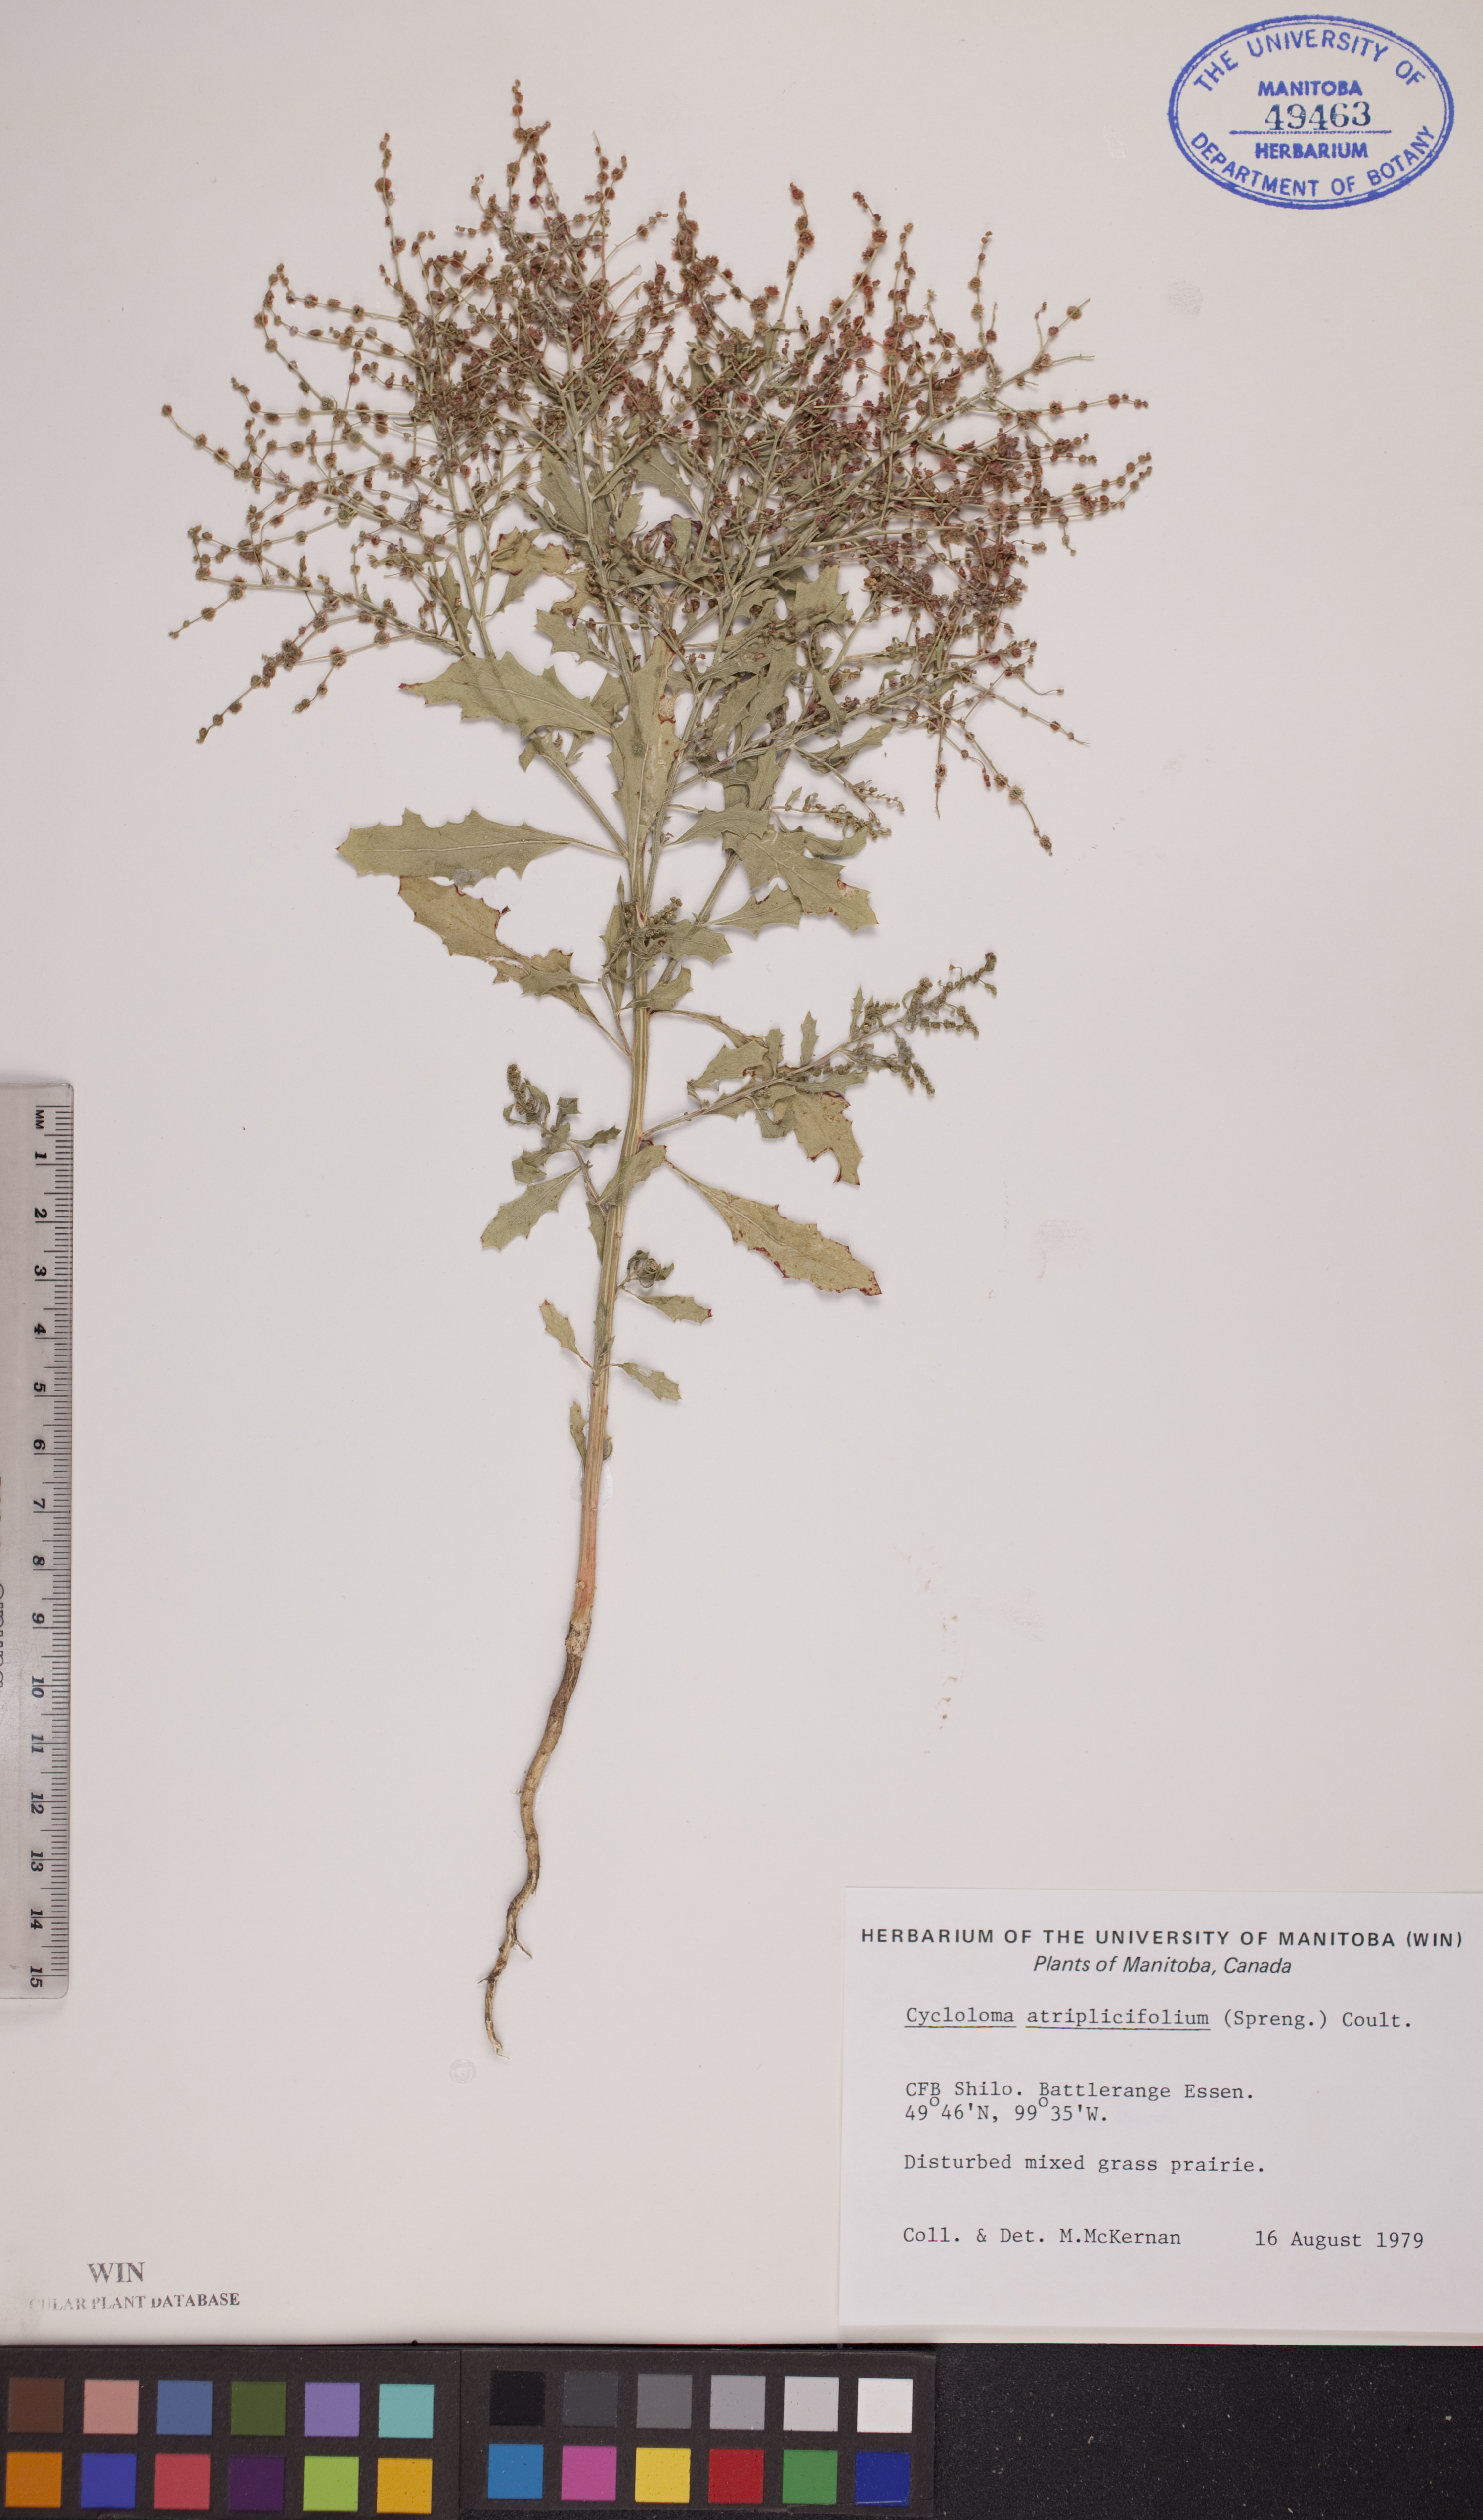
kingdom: Plantae
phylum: Tracheophyta
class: Magnoliopsida
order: Caryophyllales
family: Amaranthaceae
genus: Dysphania
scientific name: Dysphania atriplicifolia
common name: Plains tumbleweed
